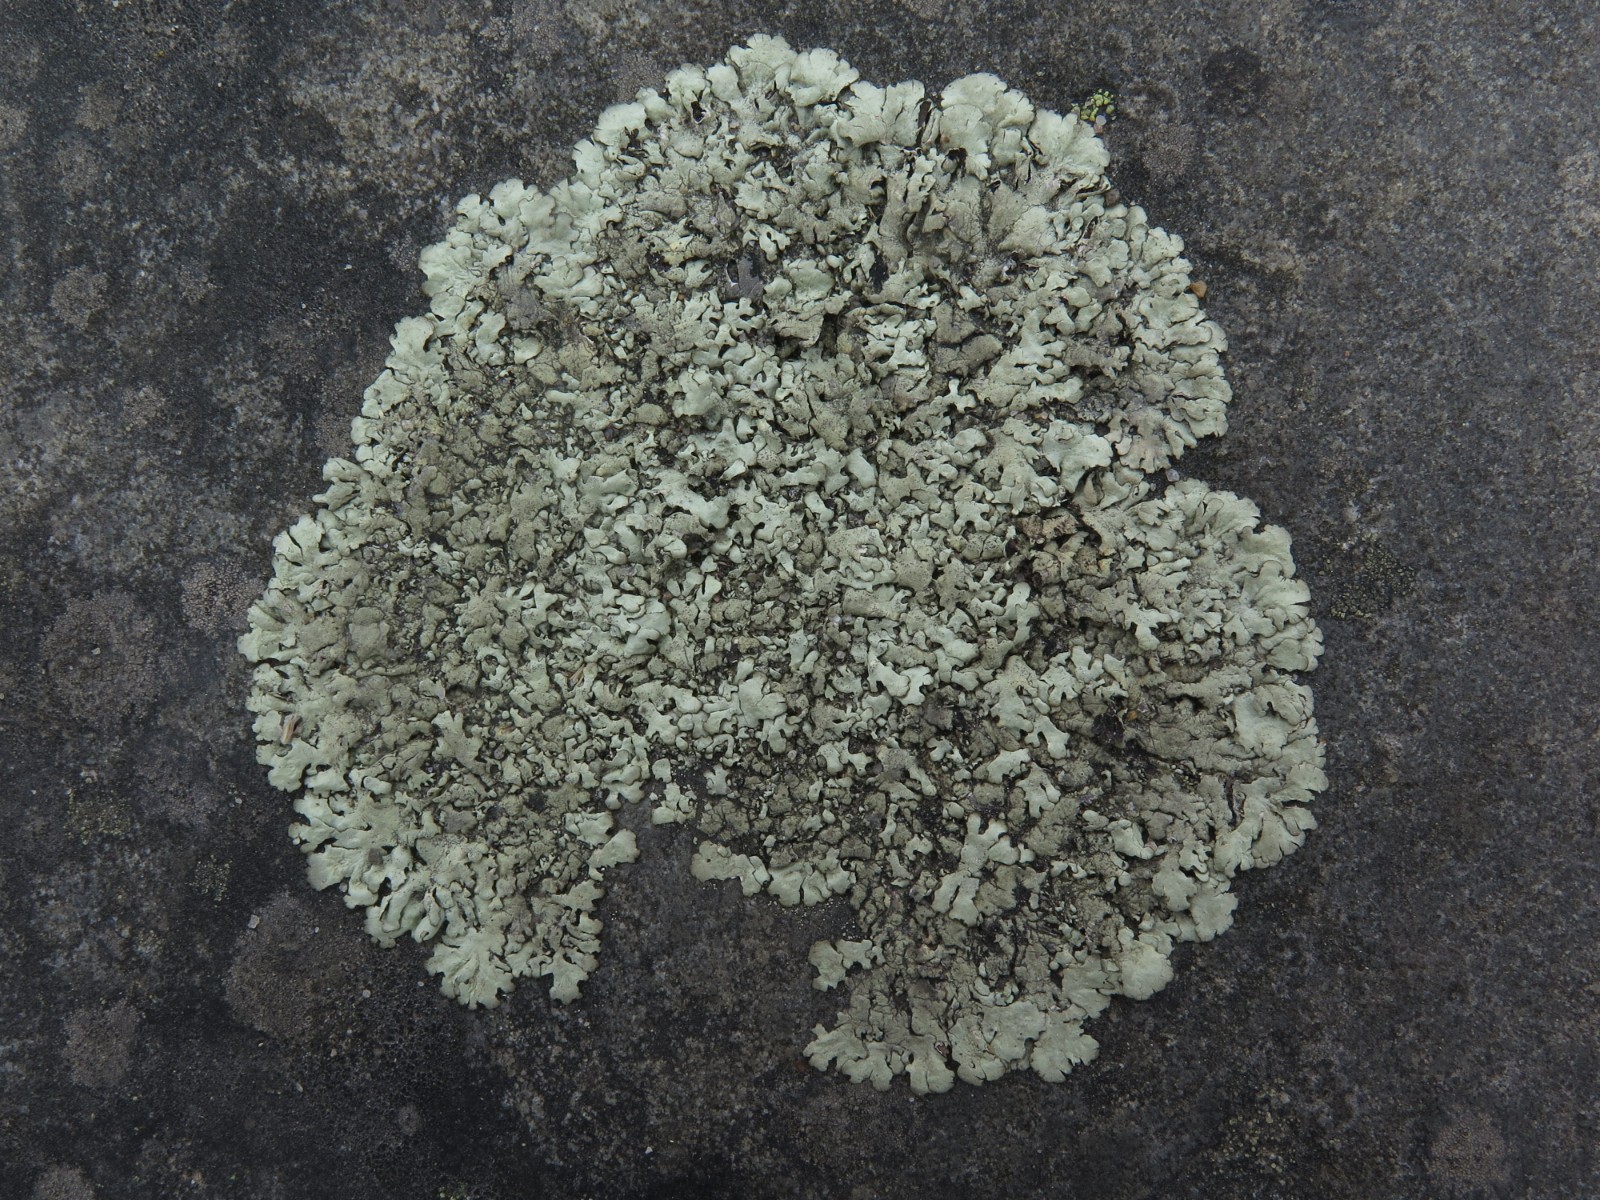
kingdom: Fungi
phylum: Ascomycota
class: Lecanoromycetes
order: Lecanorales
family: Parmeliaceae
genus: Xanthoparmelia
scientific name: Xanthoparmelia conspersa
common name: messing-skållav
